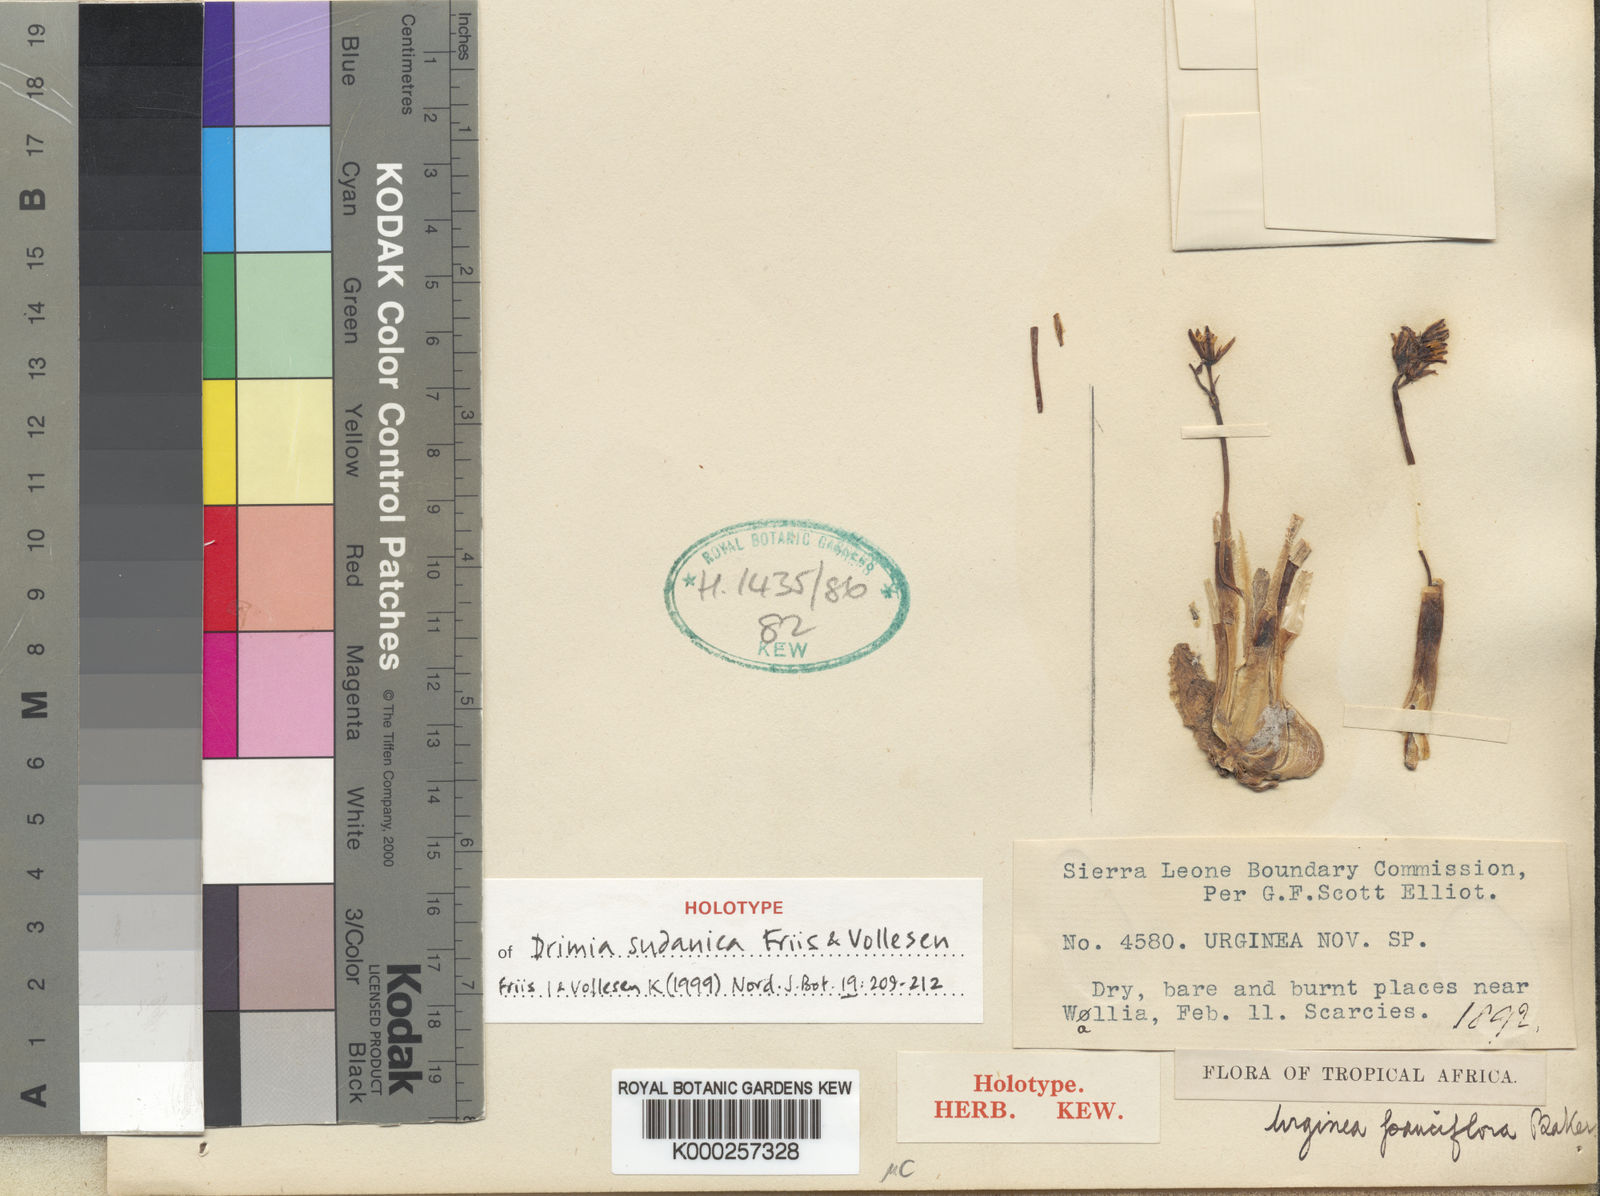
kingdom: Plantae
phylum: Tracheophyta
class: Liliopsida
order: Asparagales
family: Asparagaceae
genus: Drimia
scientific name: Drimia sudanica
